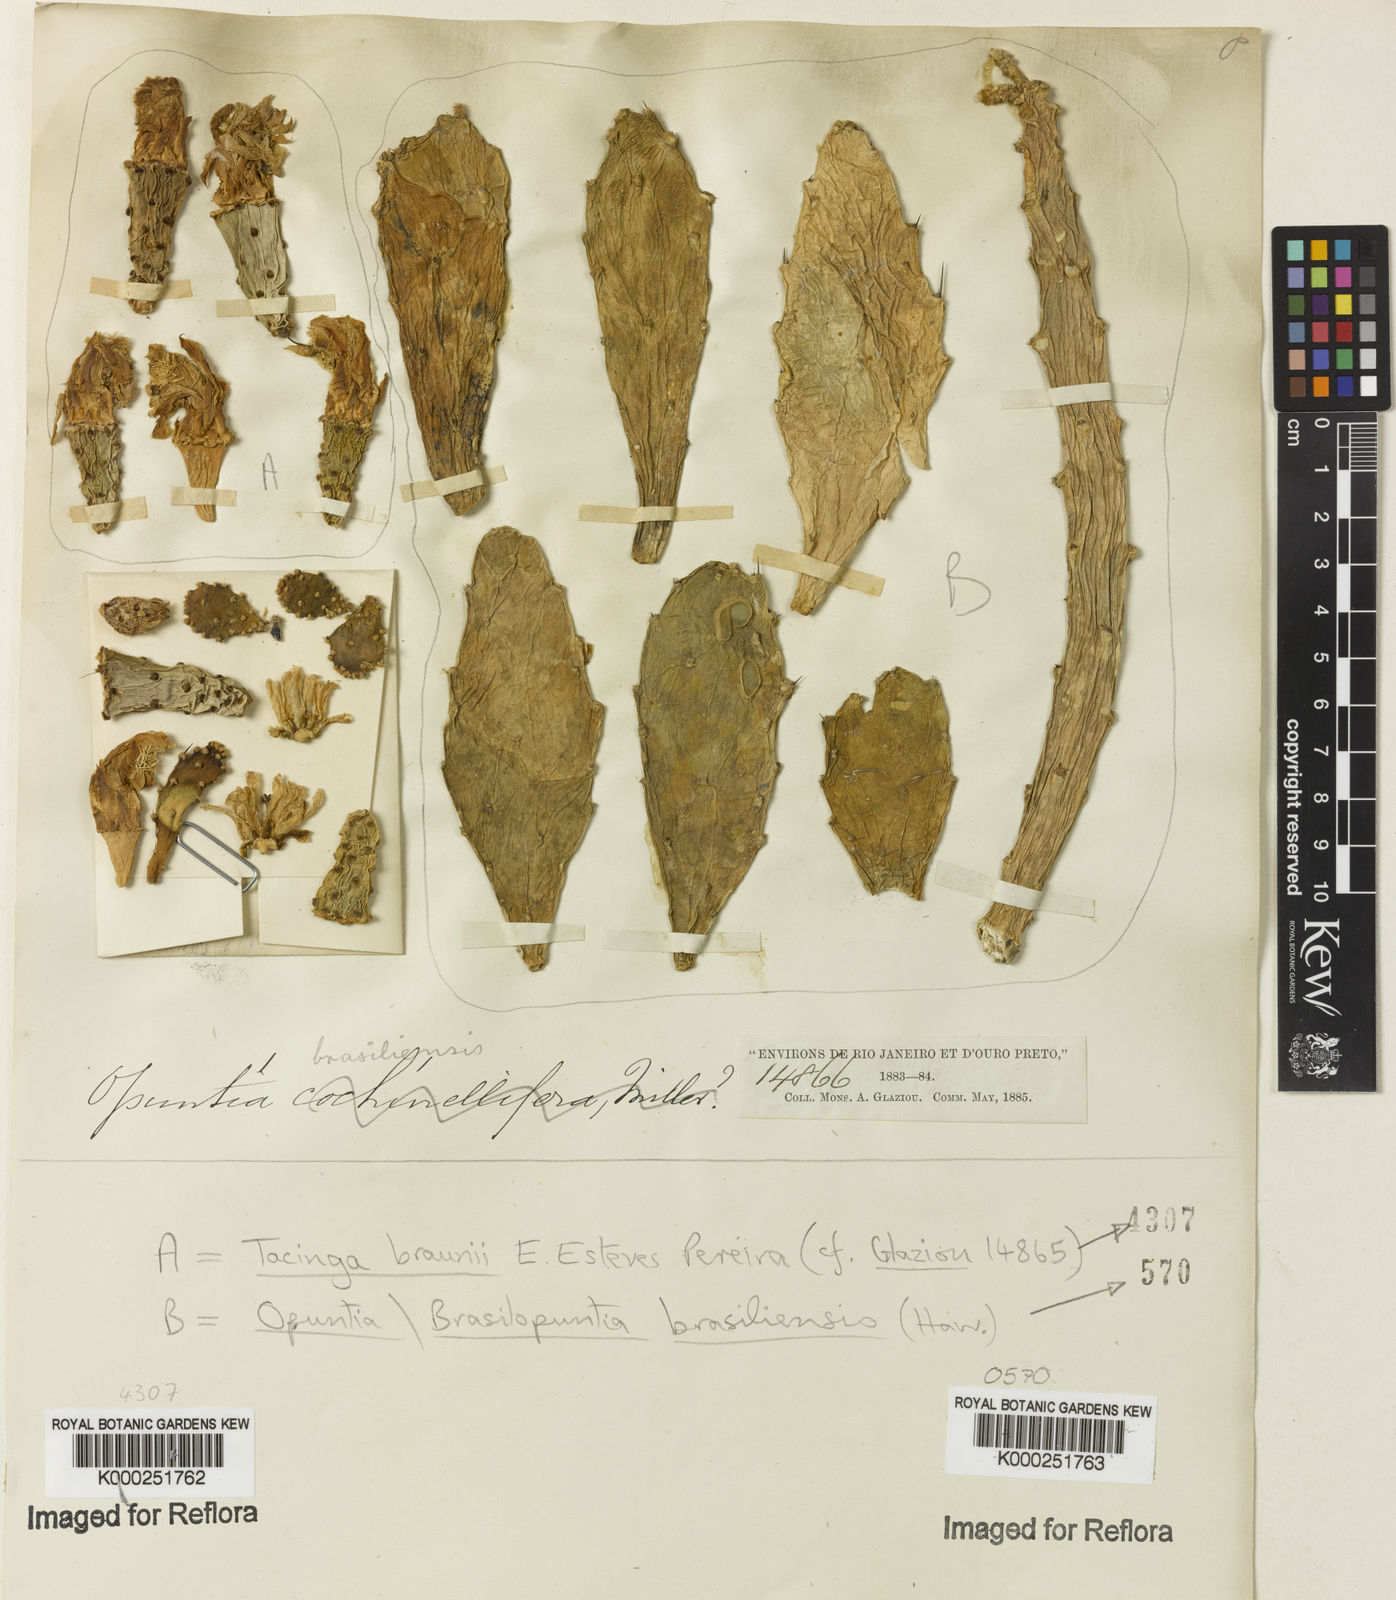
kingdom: Plantae
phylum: Tracheophyta
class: Magnoliopsida
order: Caryophyllales
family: Cactaceae
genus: Tacinga
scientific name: Tacinga braunii
